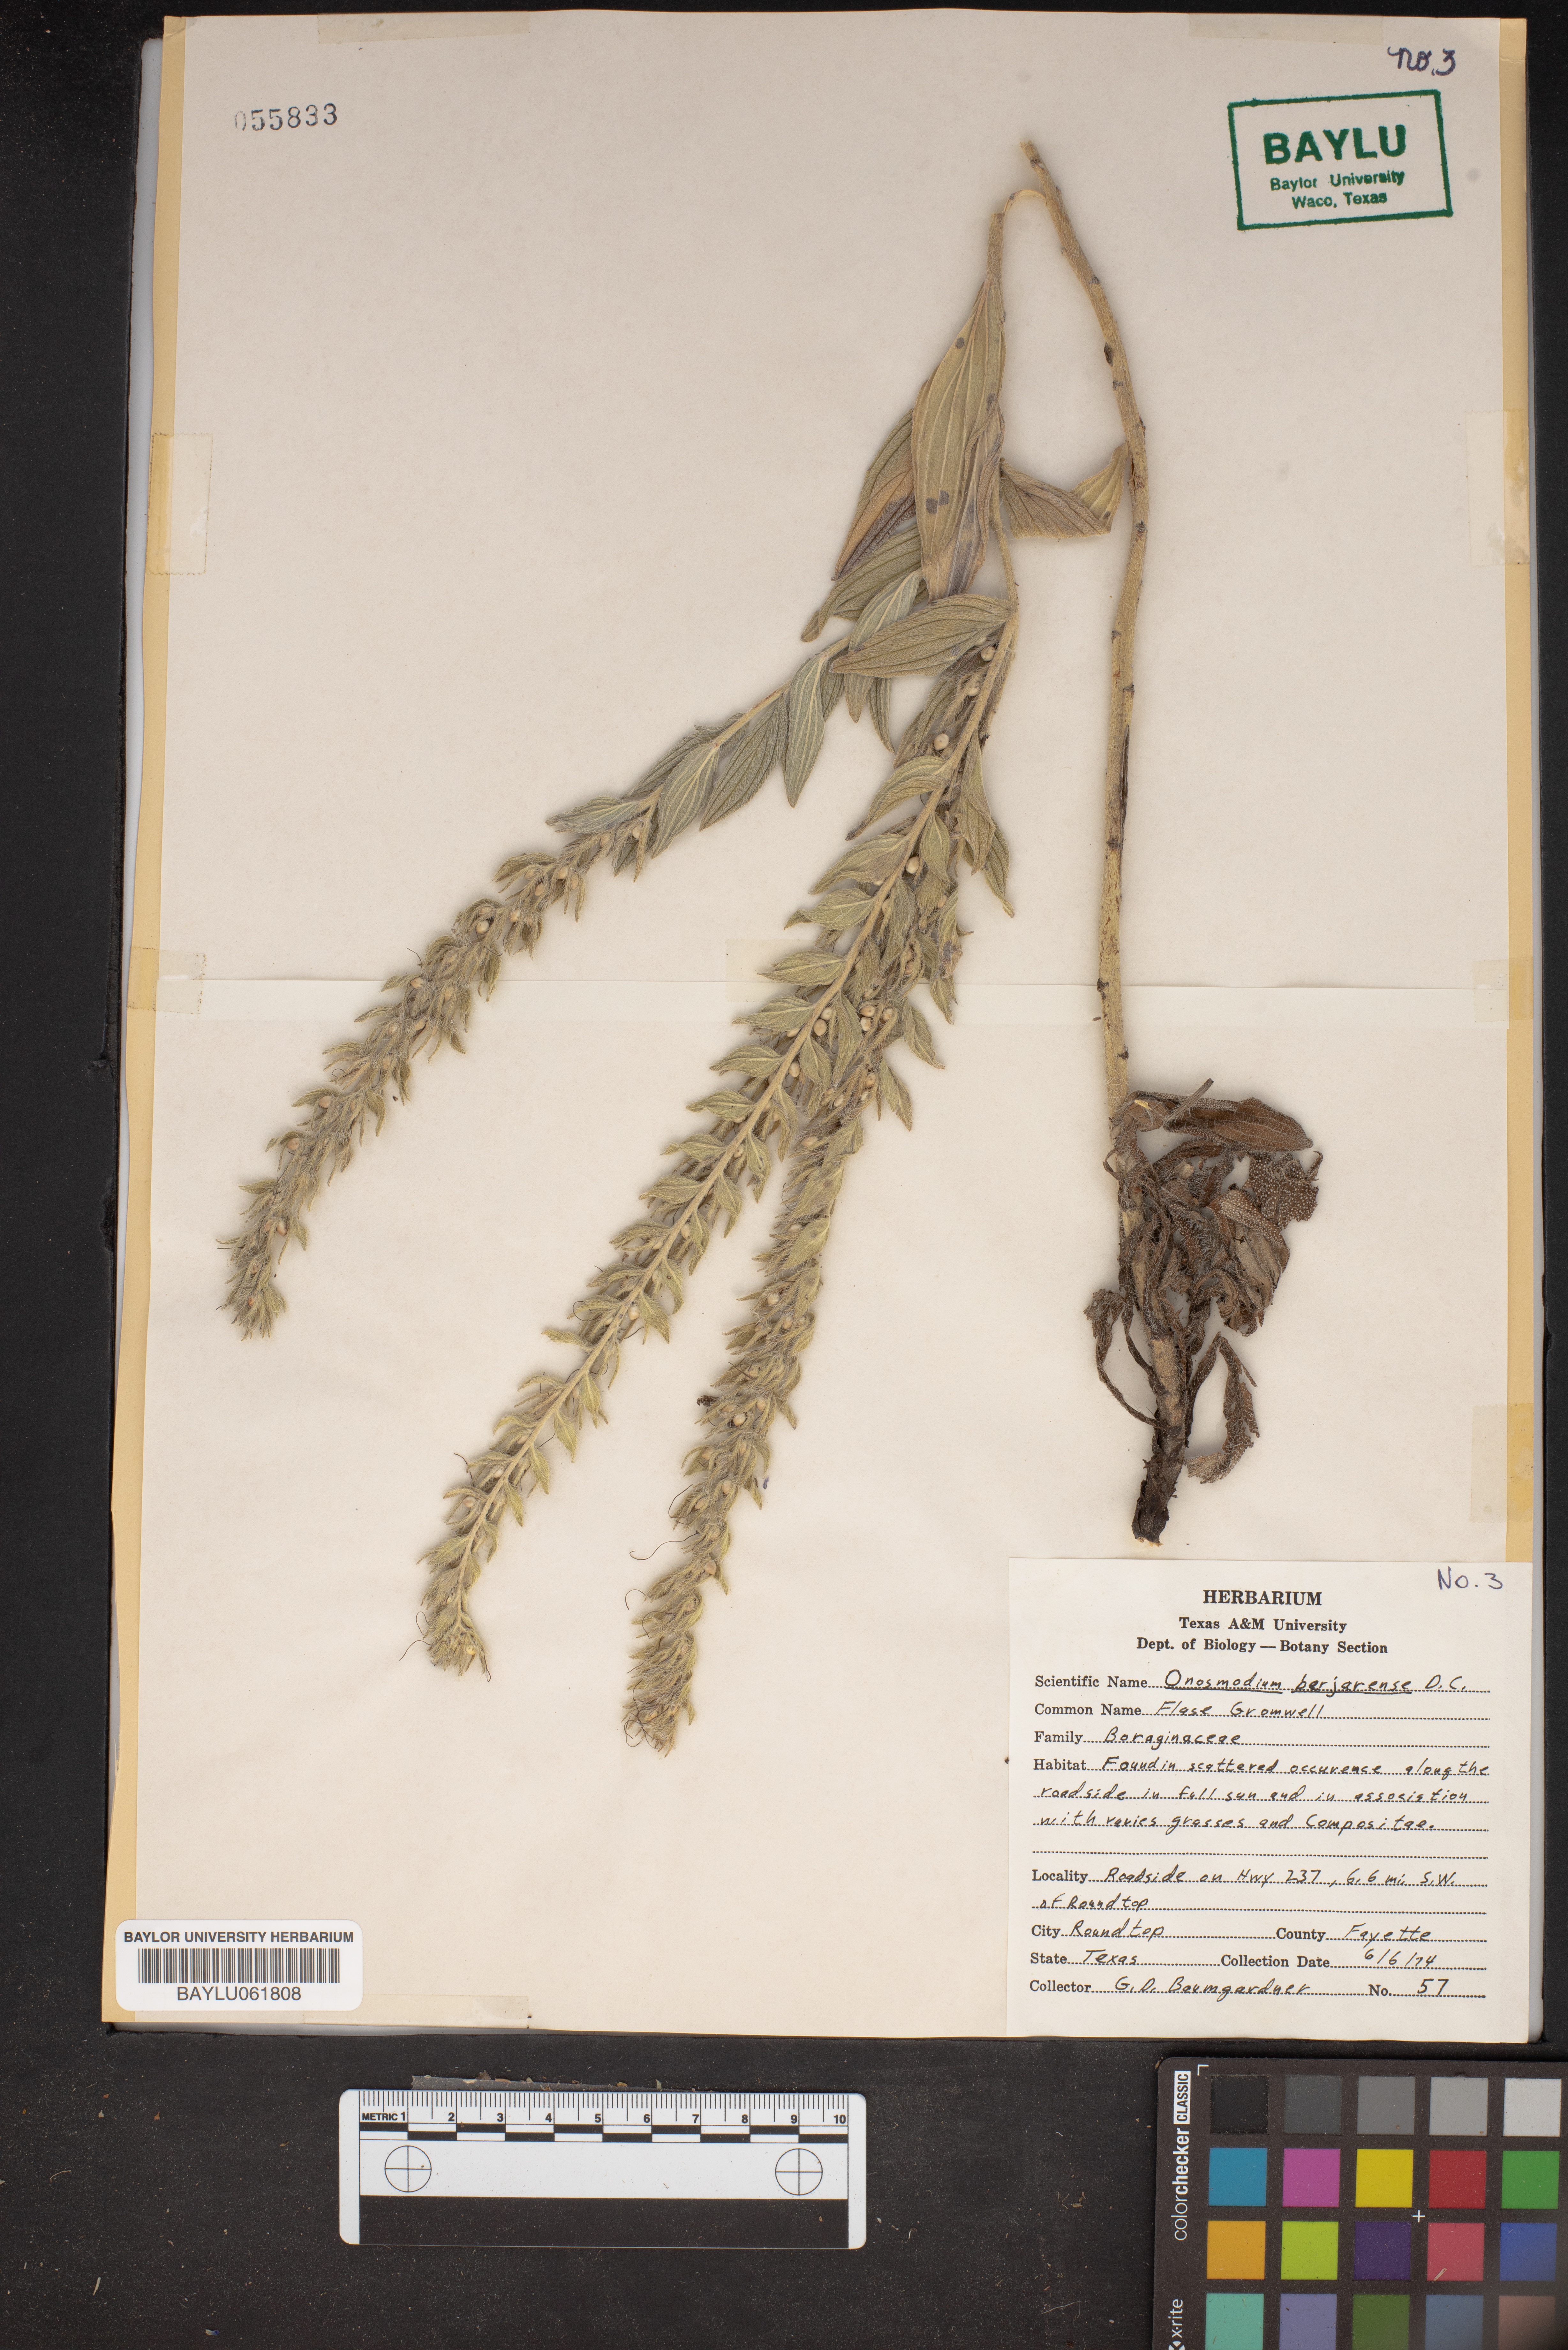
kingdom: Plantae
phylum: Tracheophyta
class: Magnoliopsida
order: Boraginales
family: Boraginaceae
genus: Lithospermum
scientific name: Lithospermum molle
